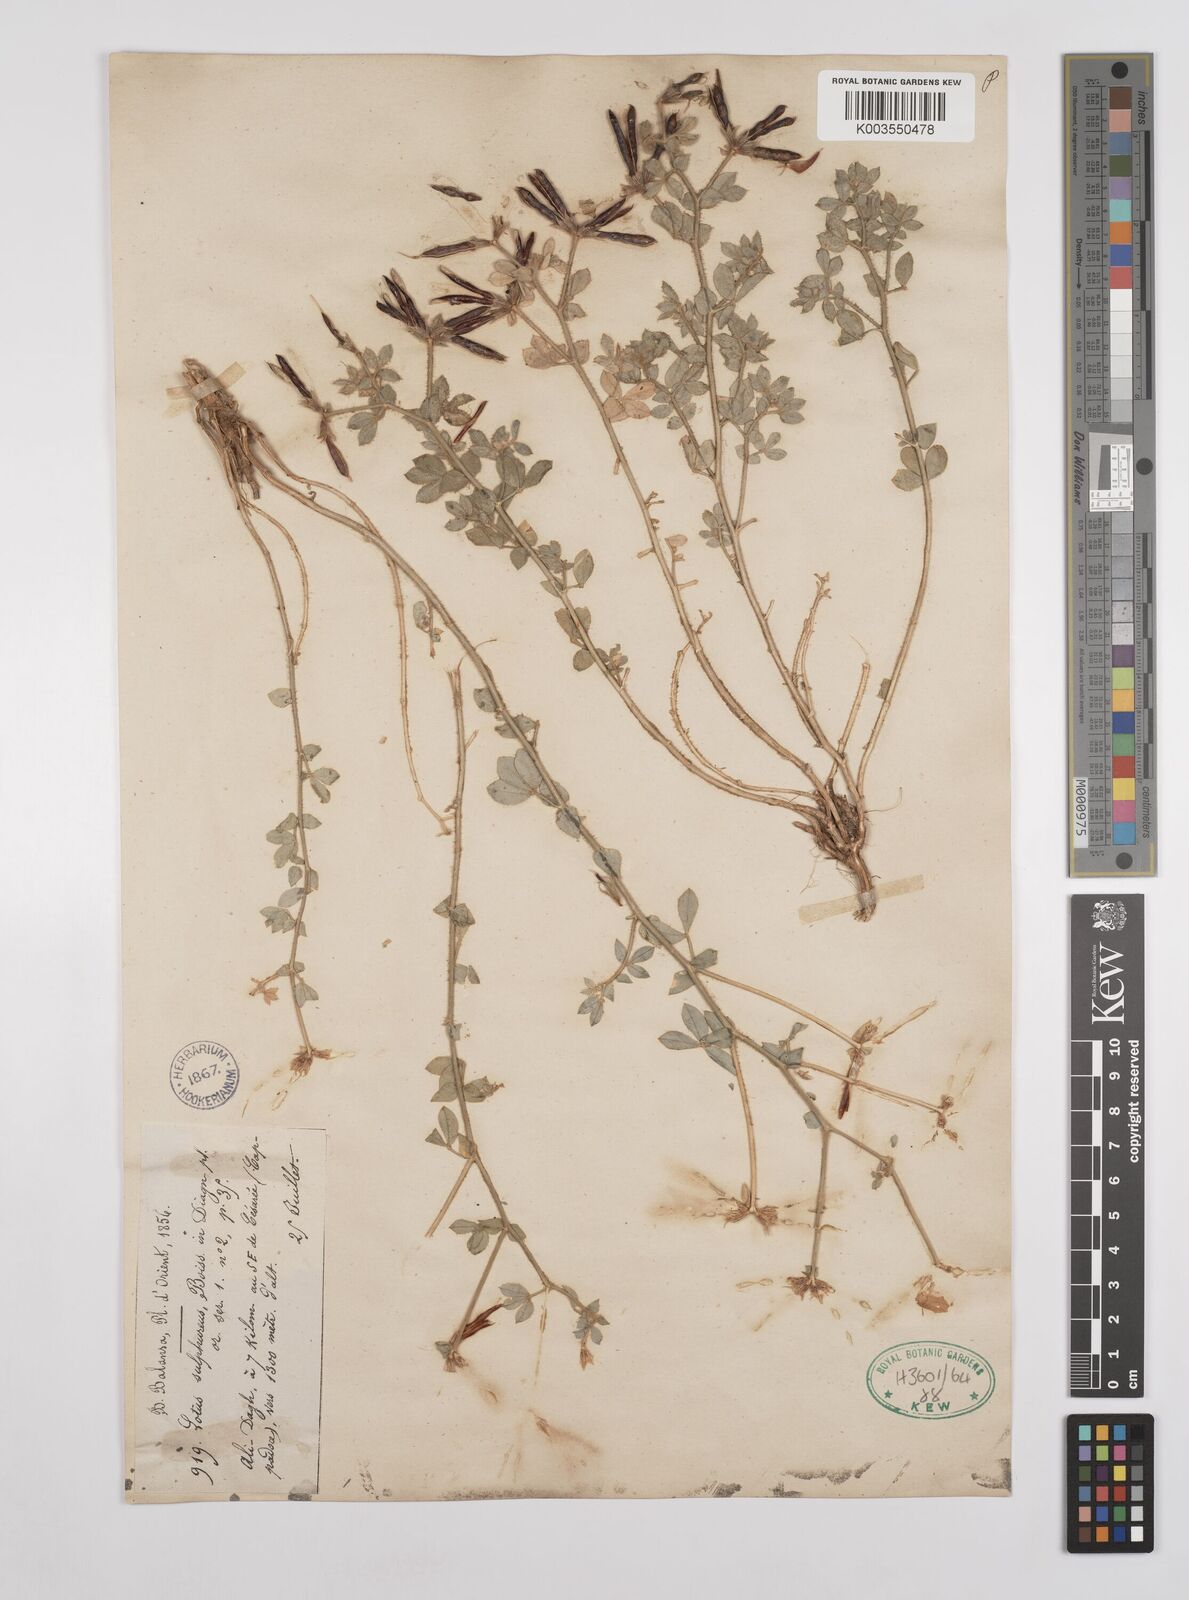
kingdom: Plantae
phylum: Tracheophyta
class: Magnoliopsida
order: Fabales
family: Fabaceae
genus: Lotus
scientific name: Lotus aegaeus
